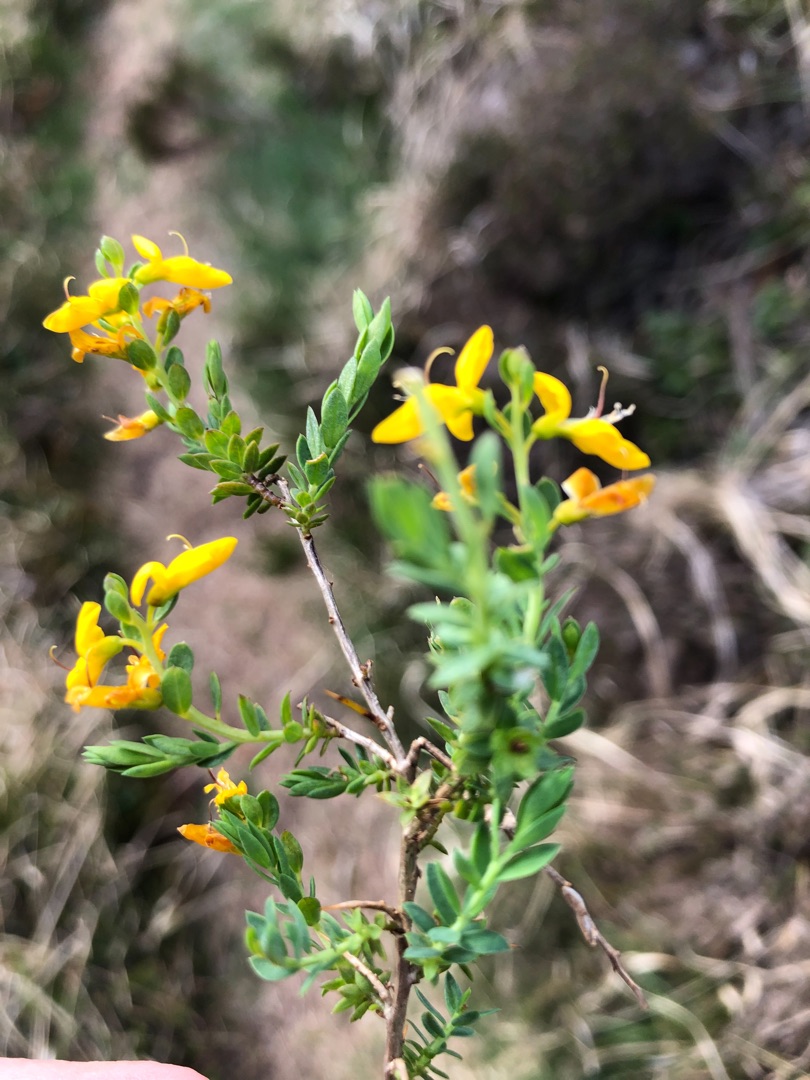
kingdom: Plantae
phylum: Tracheophyta
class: Magnoliopsida
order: Fabales
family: Fabaceae
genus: Genista
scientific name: Genista anglica
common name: Engelsk visse
